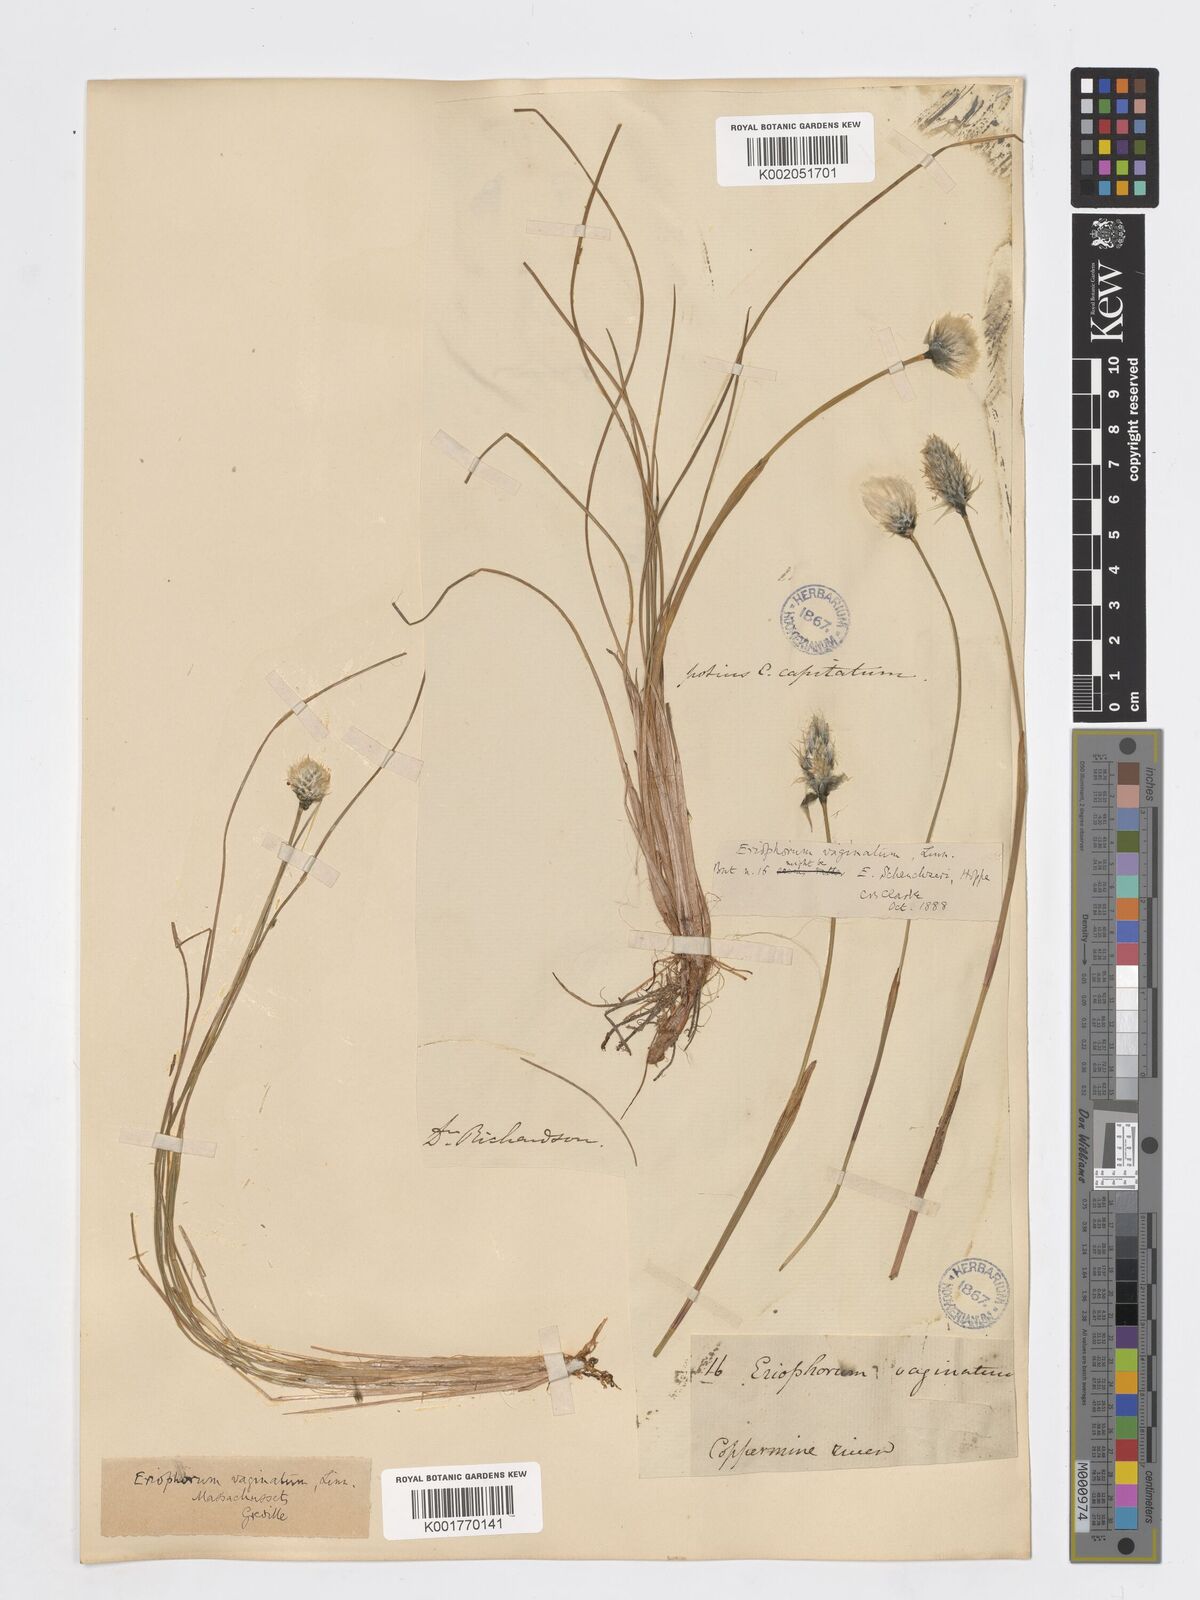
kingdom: Plantae
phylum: Tracheophyta
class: Liliopsida
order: Poales
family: Cyperaceae
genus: Eriophorum
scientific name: Eriophorum vaginatum
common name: Hare's-tail cottongrass
